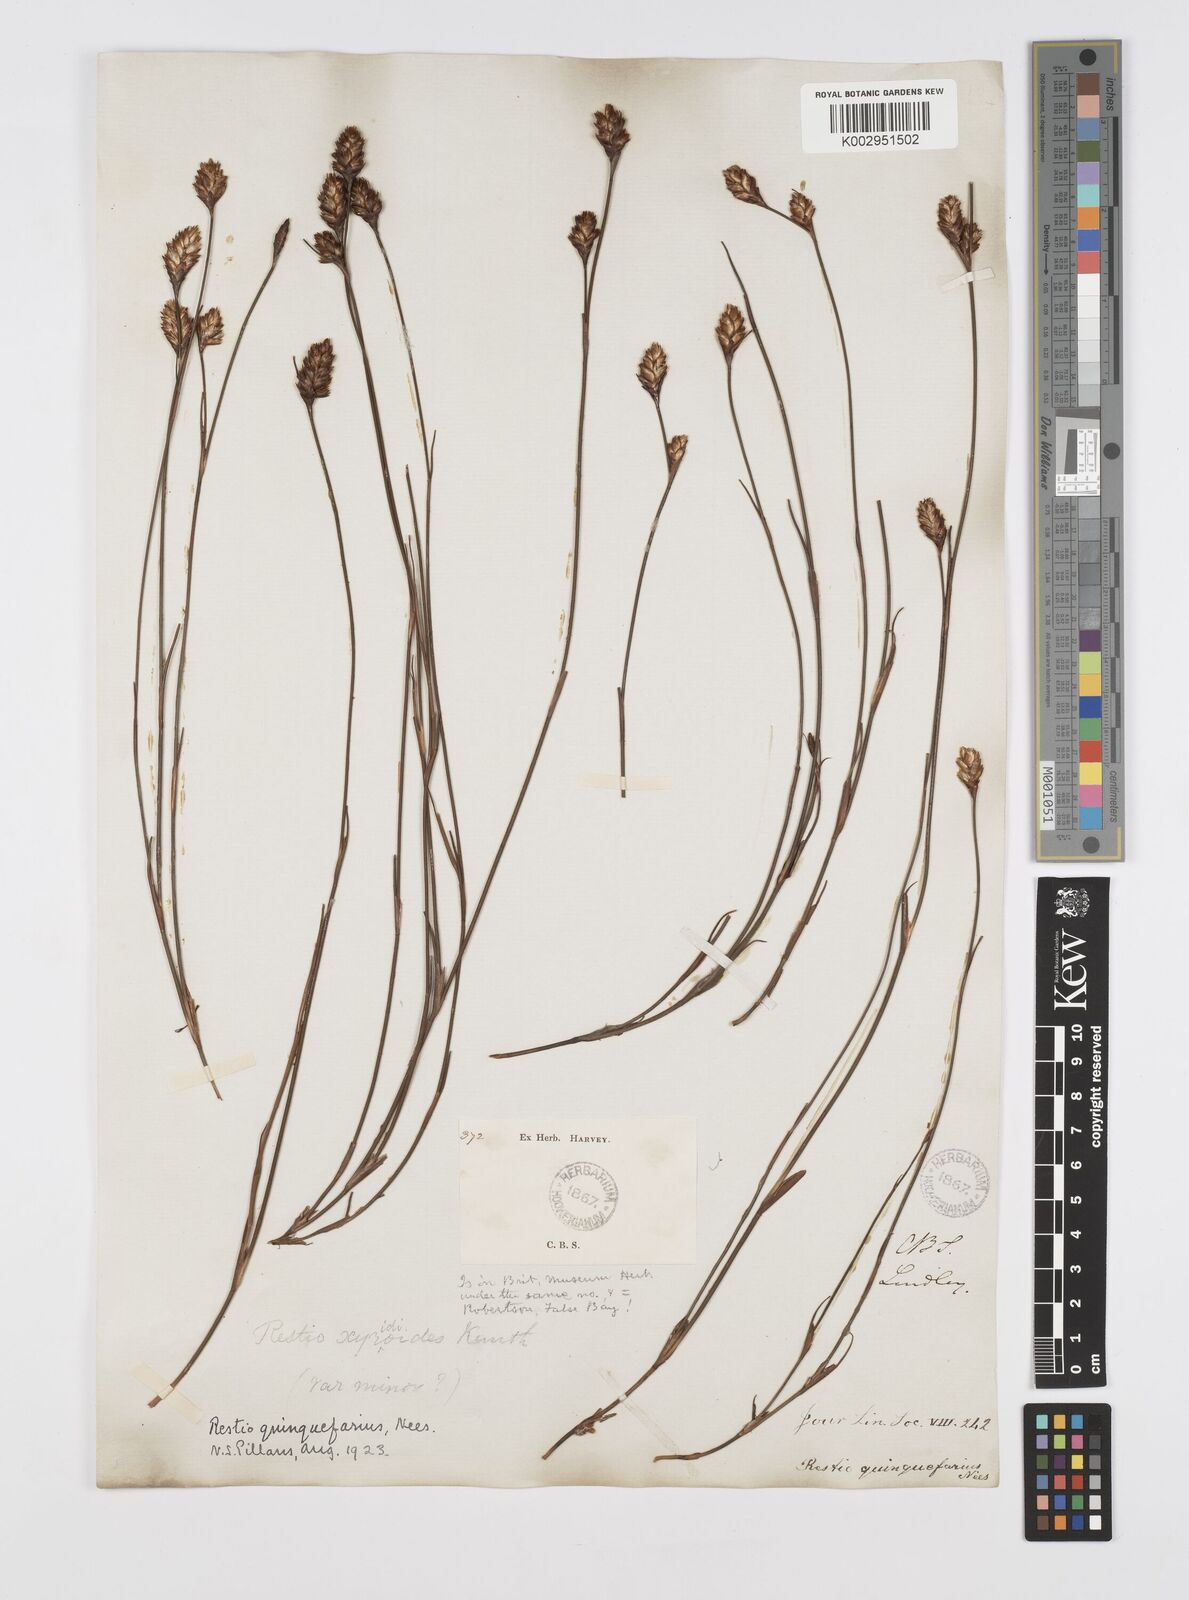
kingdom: Plantae
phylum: Tracheophyta
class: Liliopsida
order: Poales
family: Restionaceae
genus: Restio
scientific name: Restio quinquefarius
